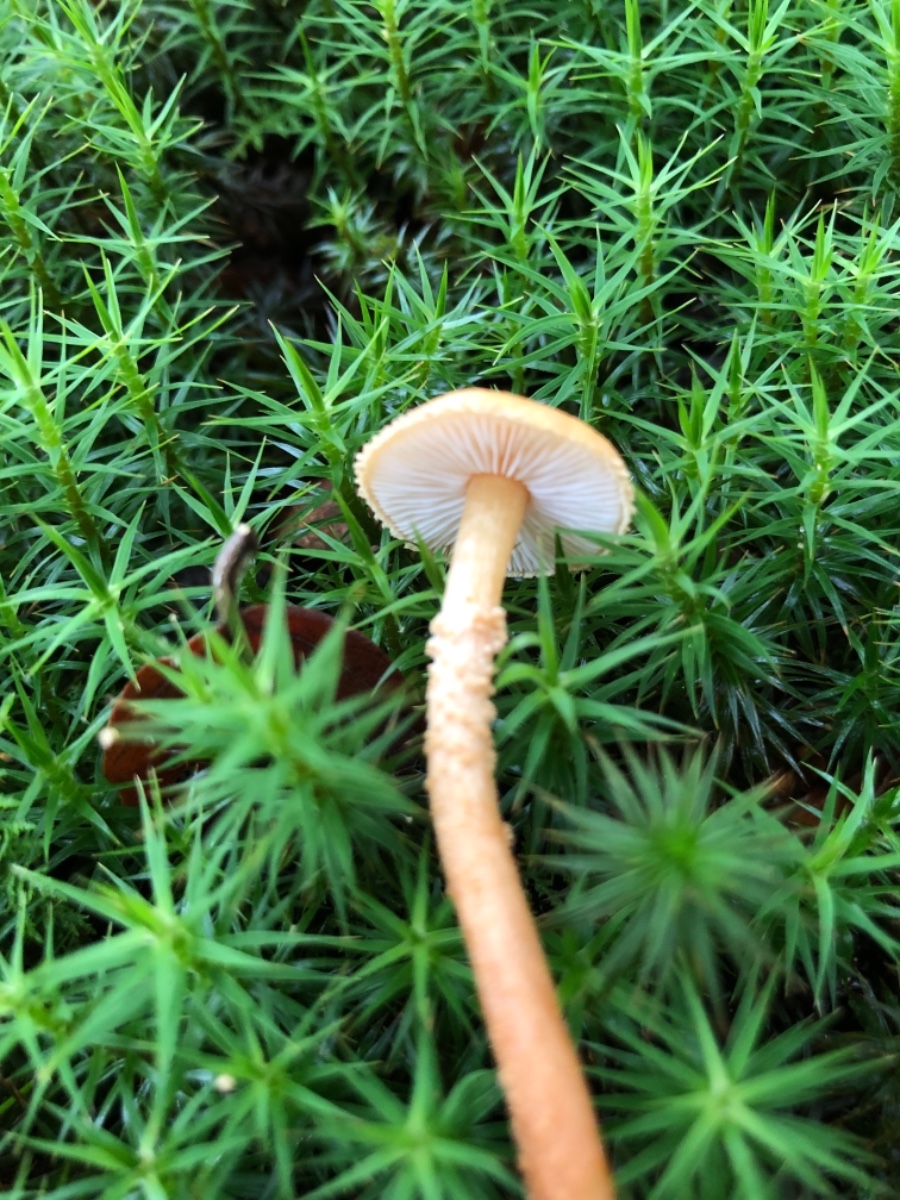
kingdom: Fungi
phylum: Basidiomycota
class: Agaricomycetes
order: Agaricales
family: Tricholomataceae
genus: Cystoderma
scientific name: Cystoderma amianthinum
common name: okkergul grynhat
